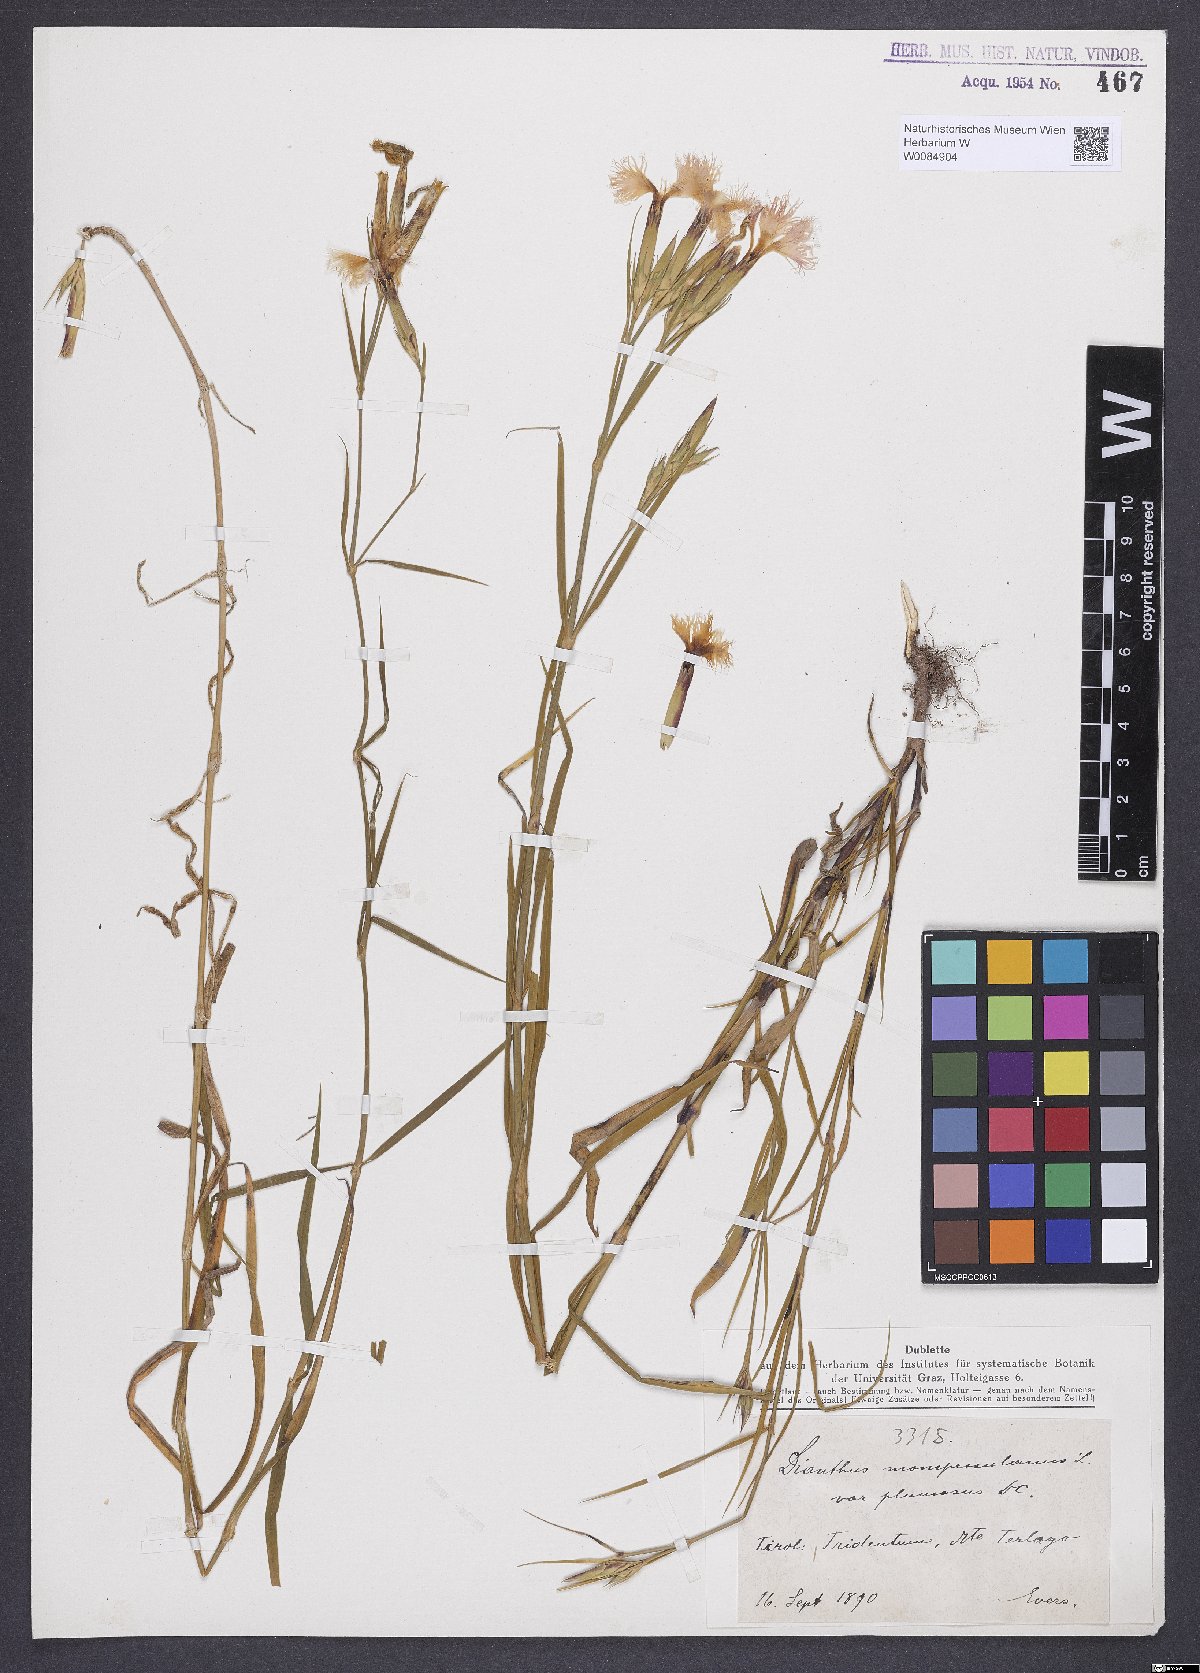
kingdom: Plantae
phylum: Tracheophyta
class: Magnoliopsida
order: Caryophyllales
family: Caryophyllaceae
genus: Dianthus
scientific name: Dianthus hyssopifolius
